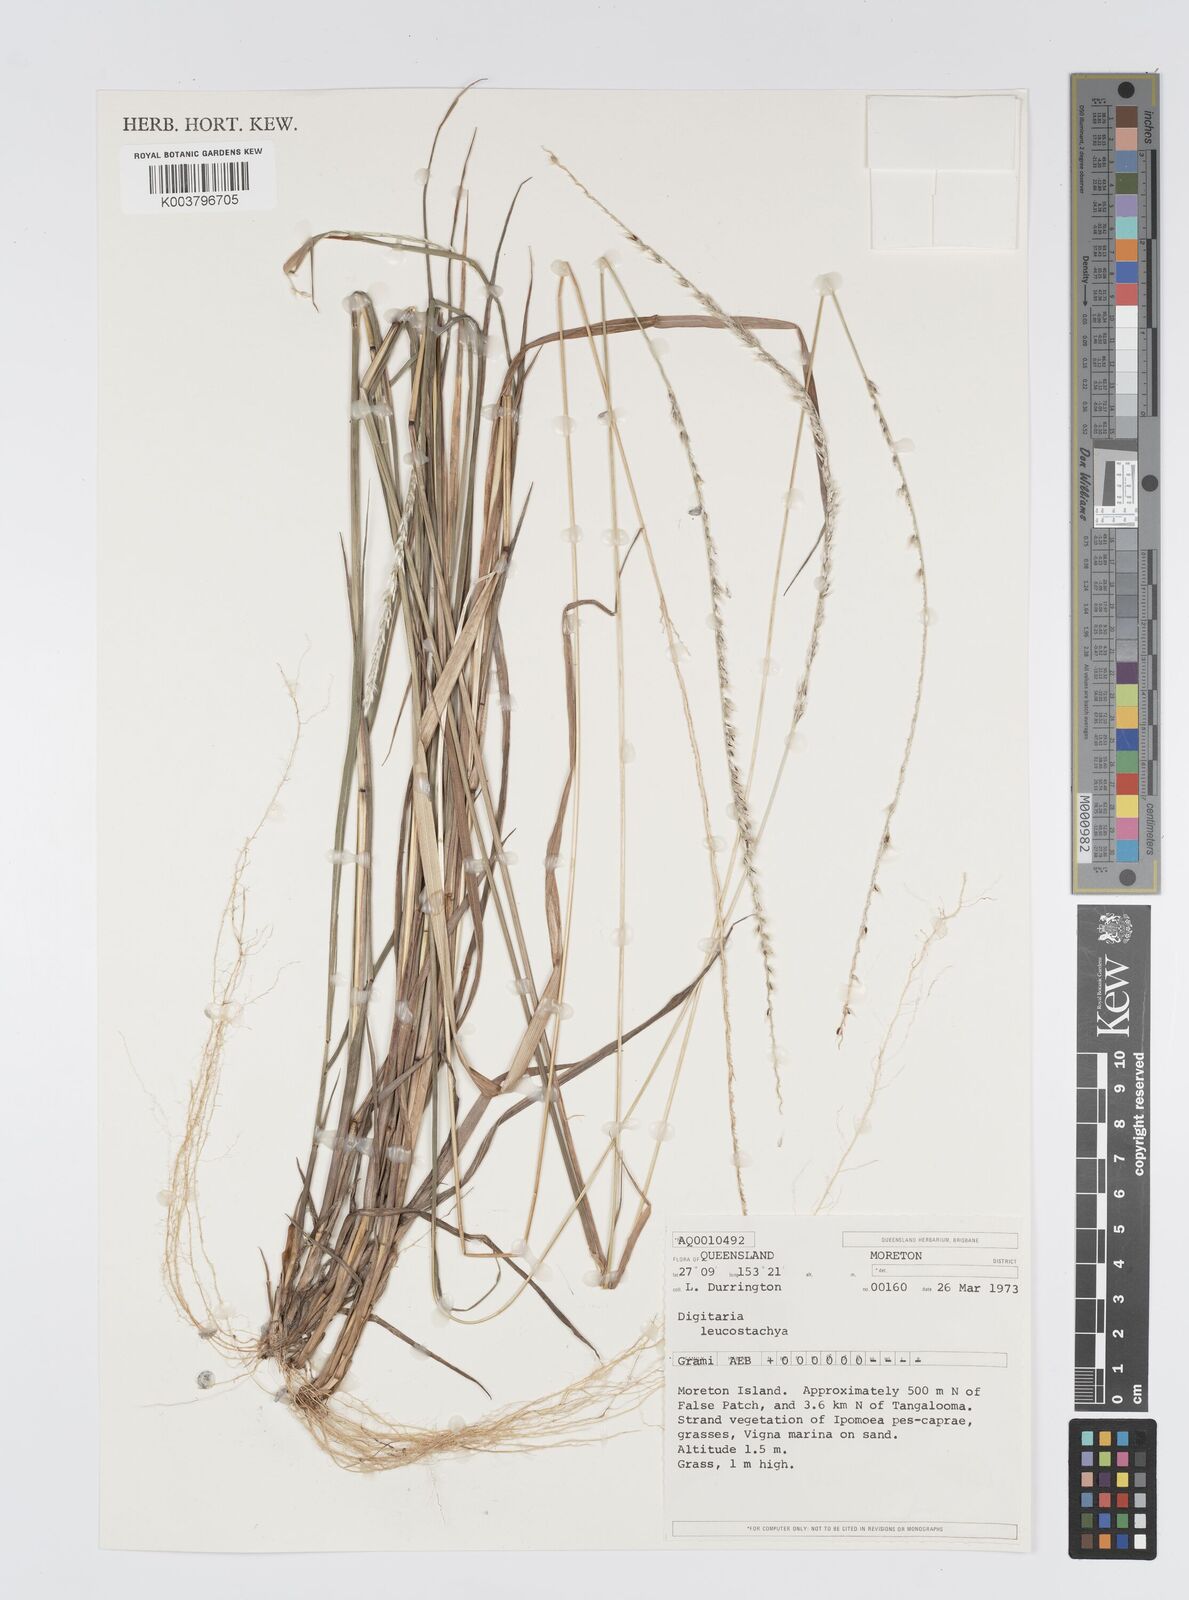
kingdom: Plantae
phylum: Tracheophyta
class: Liliopsida
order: Poales
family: Poaceae
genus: Digitaria
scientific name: Digitaria leucostachya
